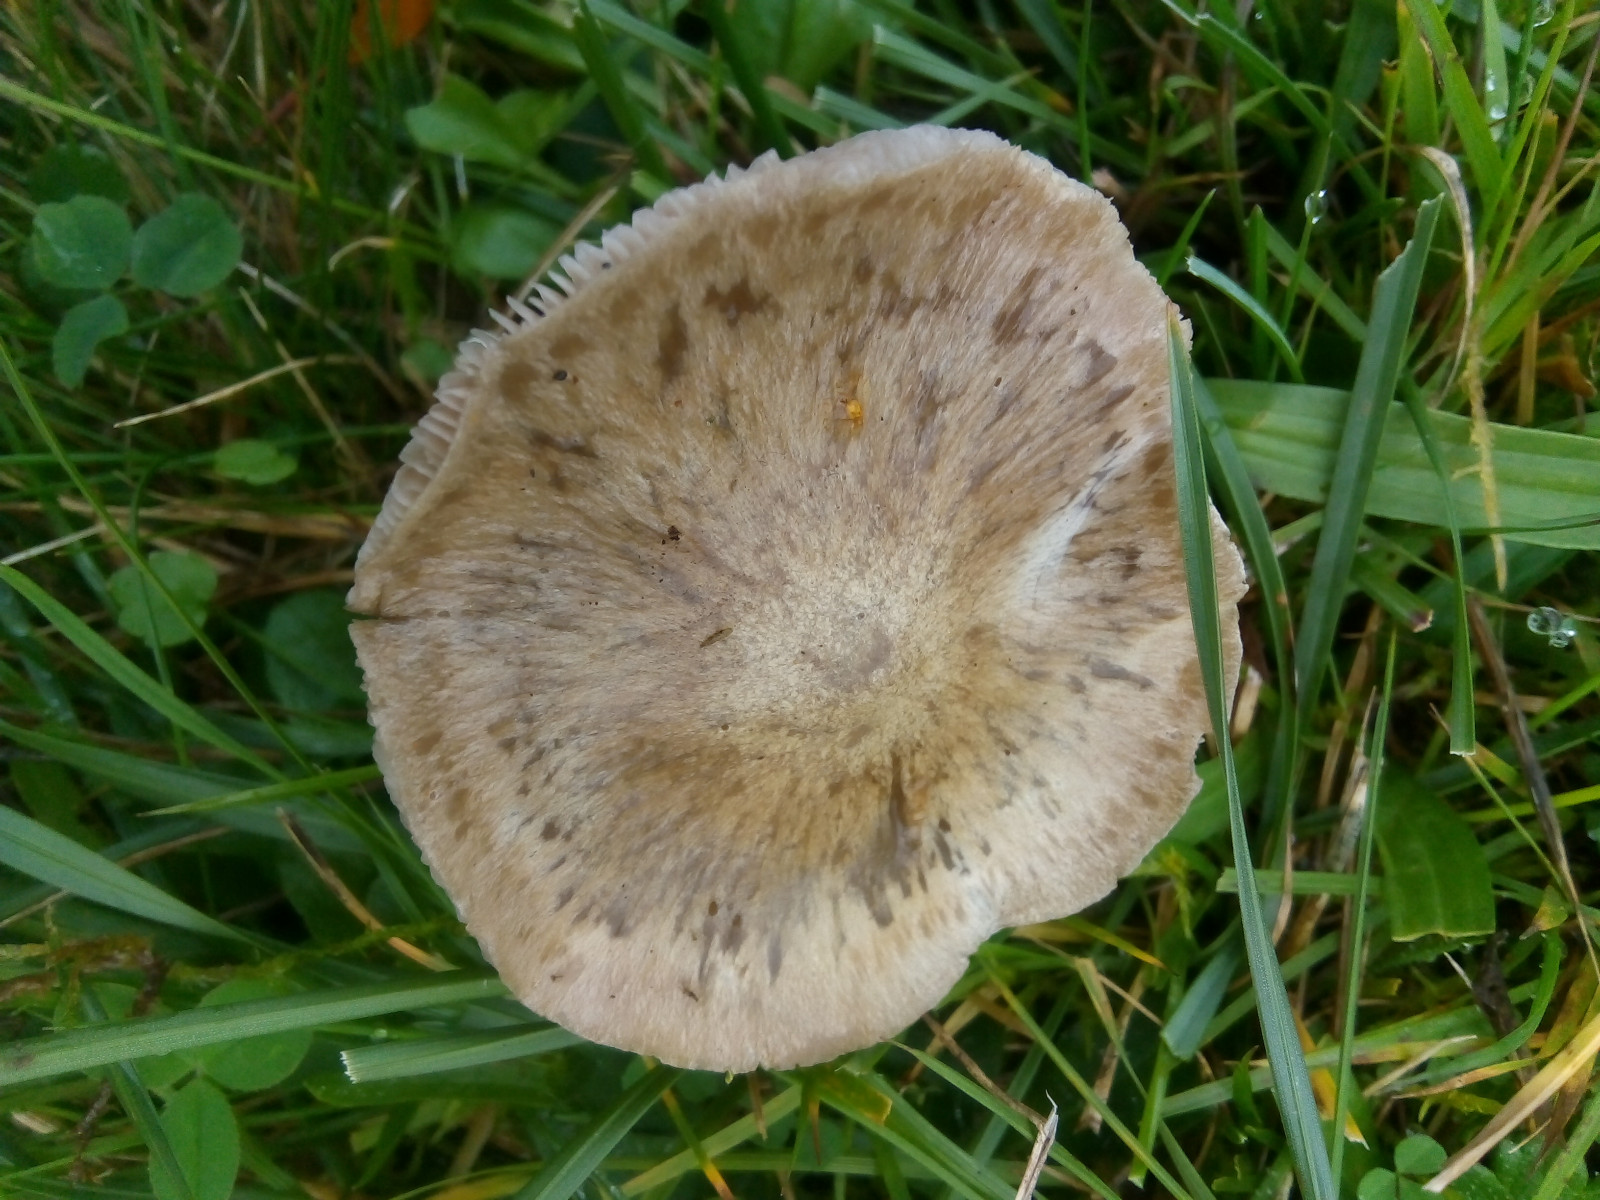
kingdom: Fungi
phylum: Basidiomycota
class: Agaricomycetes
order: Agaricales
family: Entolomataceae
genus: Entoloma
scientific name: Entoloma prunuloides
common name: mel-rødblad
